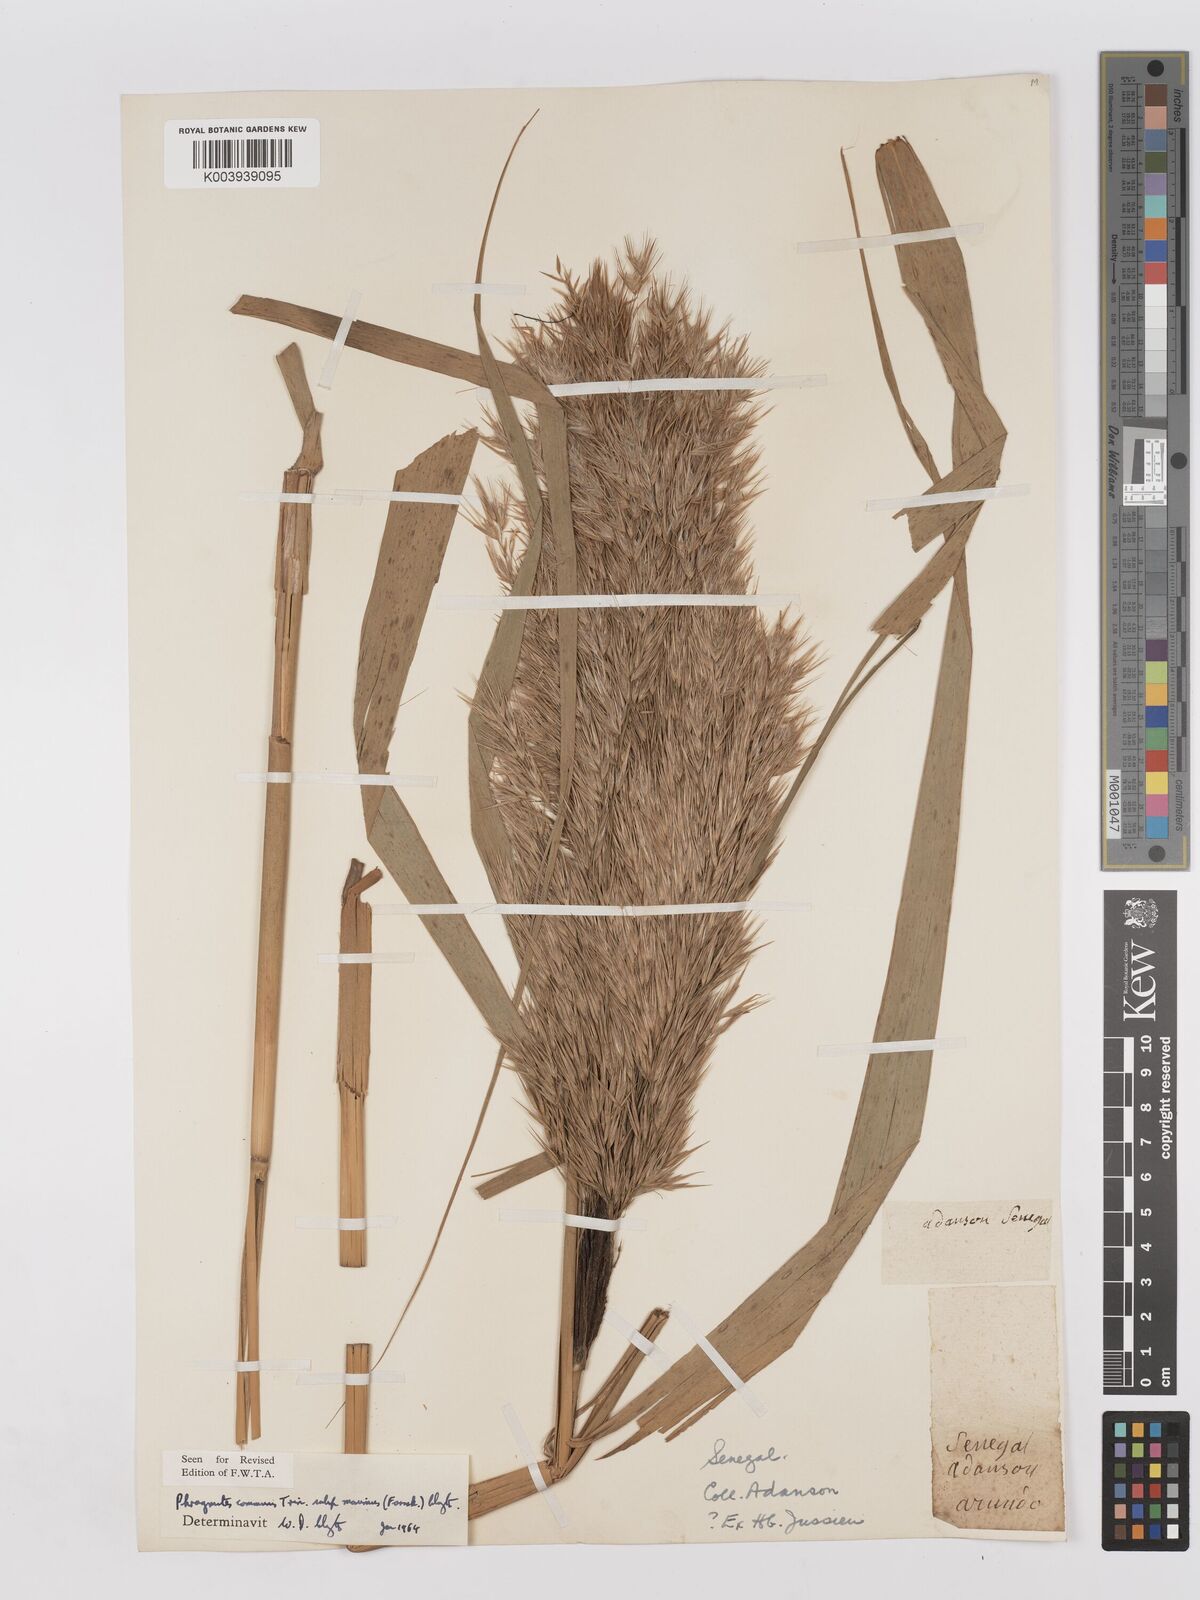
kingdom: Plantae
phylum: Tracheophyta
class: Liliopsida
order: Poales
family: Poaceae
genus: Phragmites
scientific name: Phragmites australis
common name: Common reed
